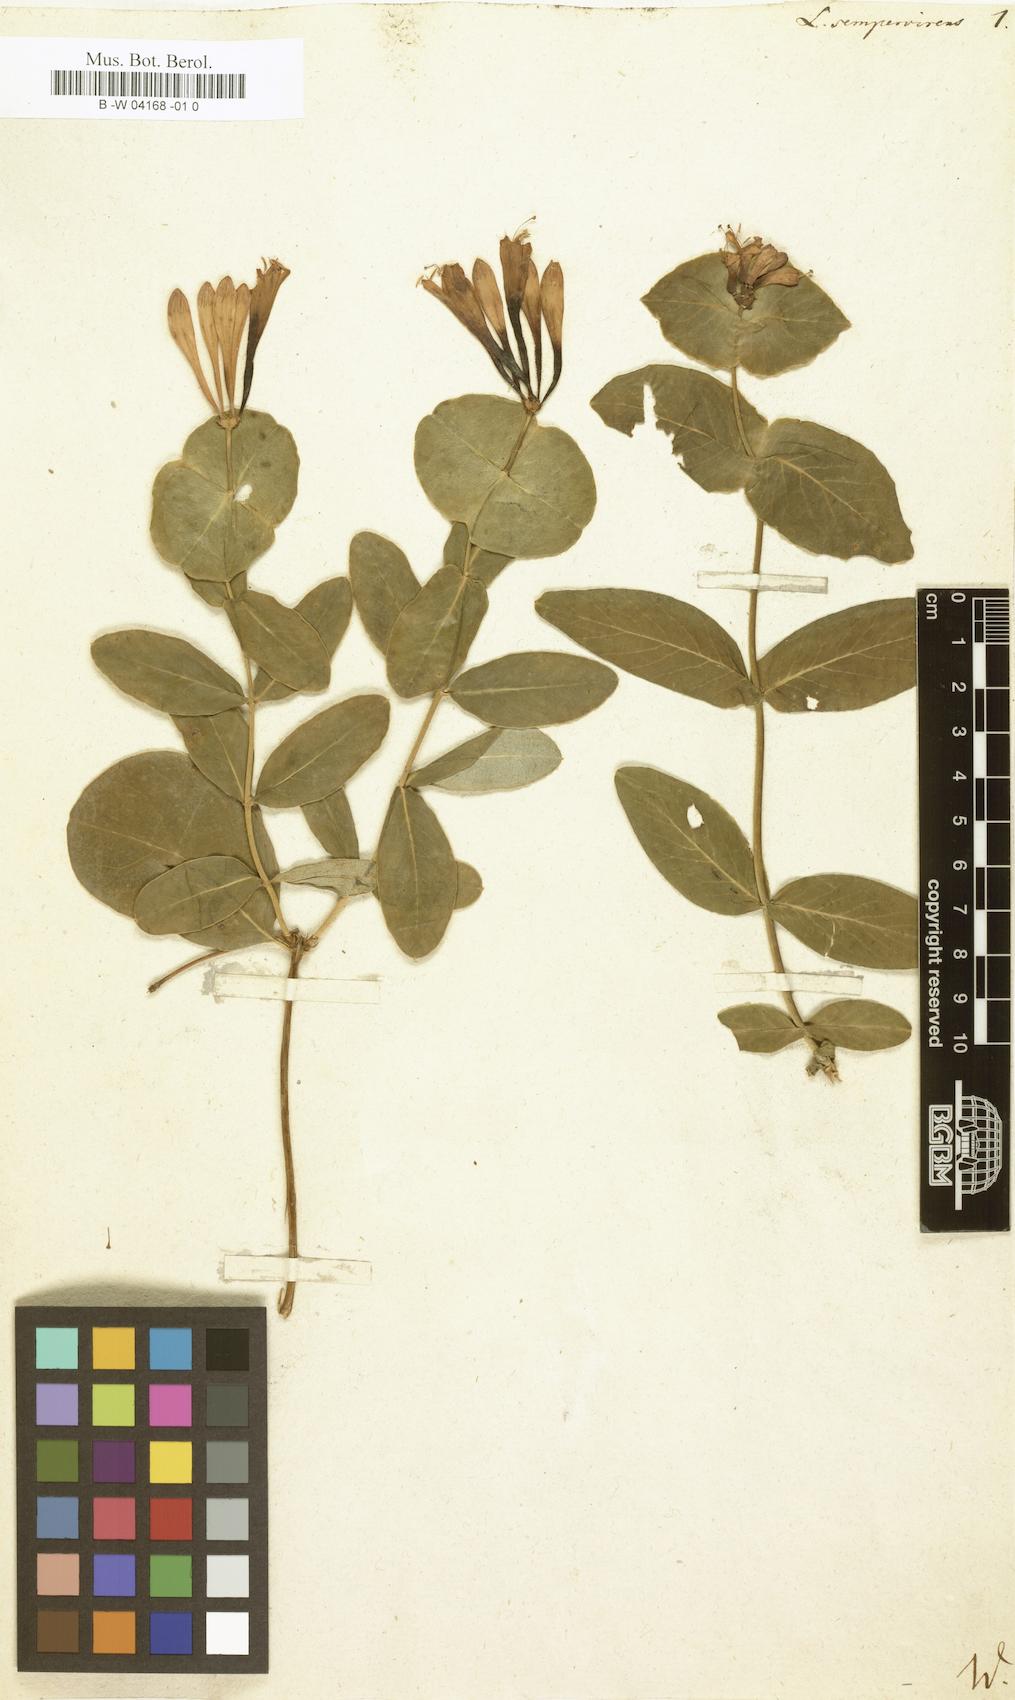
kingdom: Plantae
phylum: Tracheophyta
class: Magnoliopsida
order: Dipsacales
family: Caprifoliaceae
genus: Lonicera
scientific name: Lonicera sempervirens
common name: Coral honeysuckle
